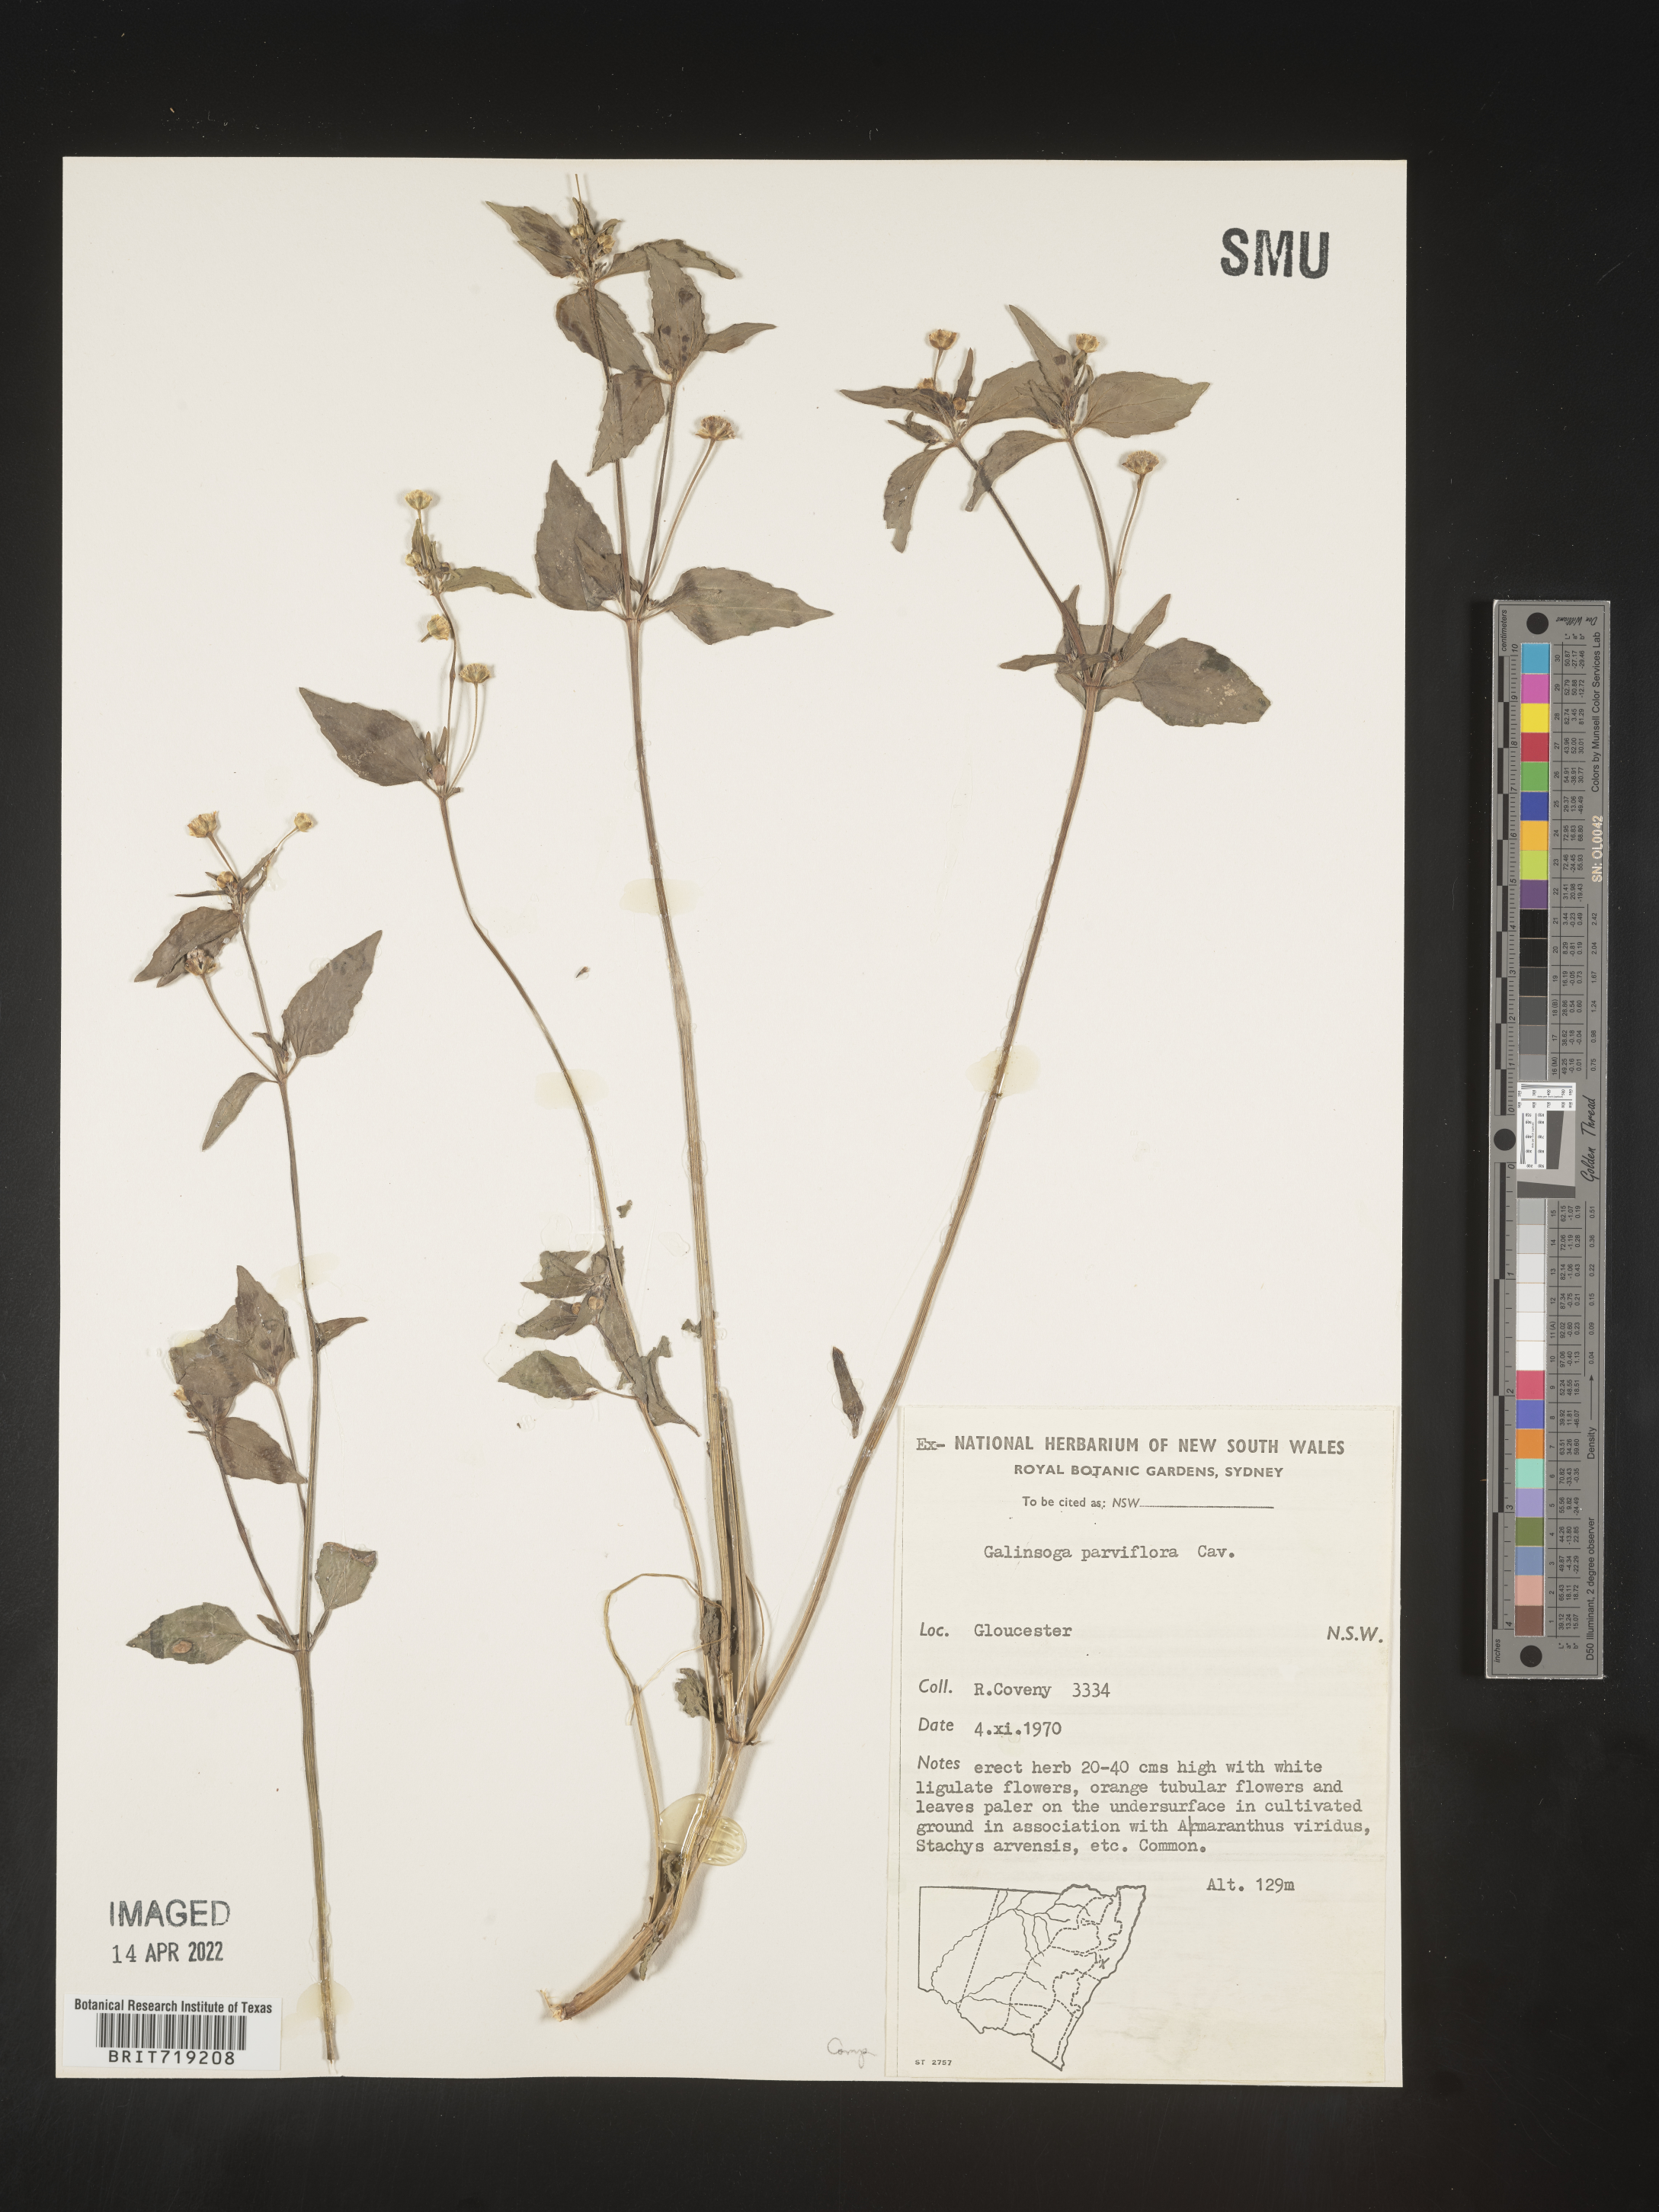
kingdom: Plantae
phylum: Tracheophyta
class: Magnoliopsida
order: Asterales
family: Asteraceae
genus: Galinsoga
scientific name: Galinsoga
